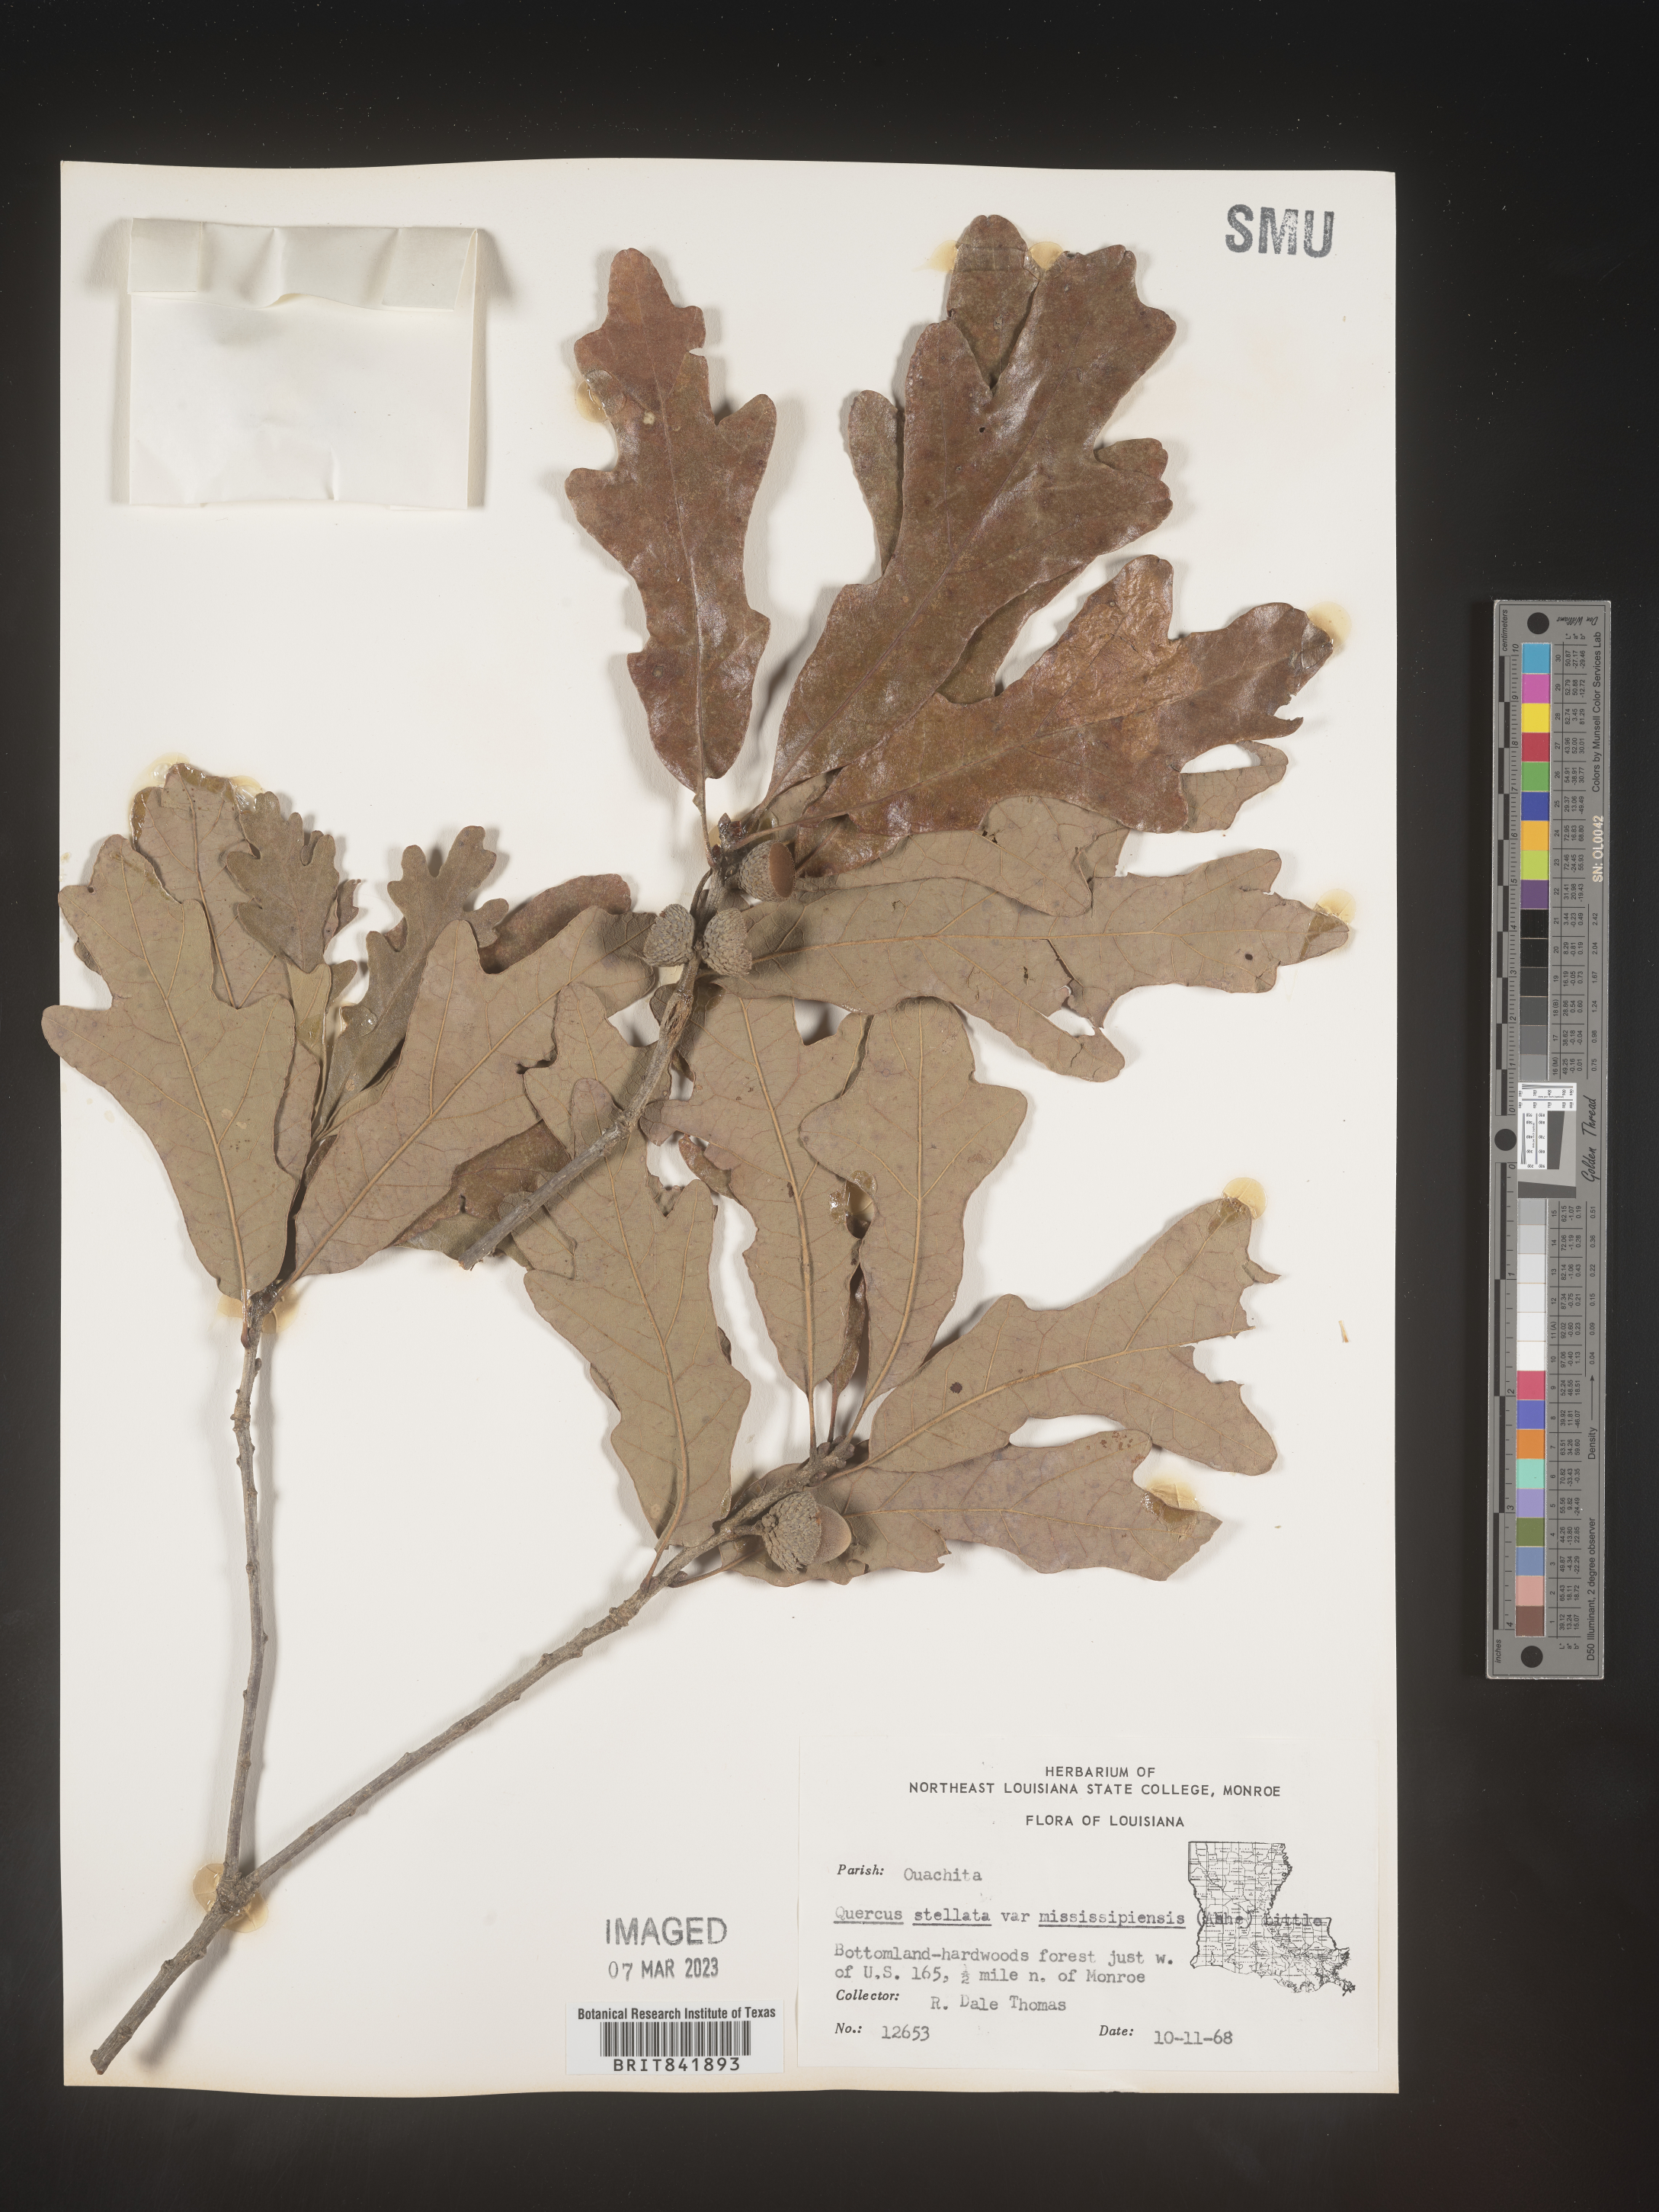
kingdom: Plantae
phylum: Tracheophyta
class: Magnoliopsida
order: Fagales
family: Fagaceae
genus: Quercus
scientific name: Quercus stellata
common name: Post oak
